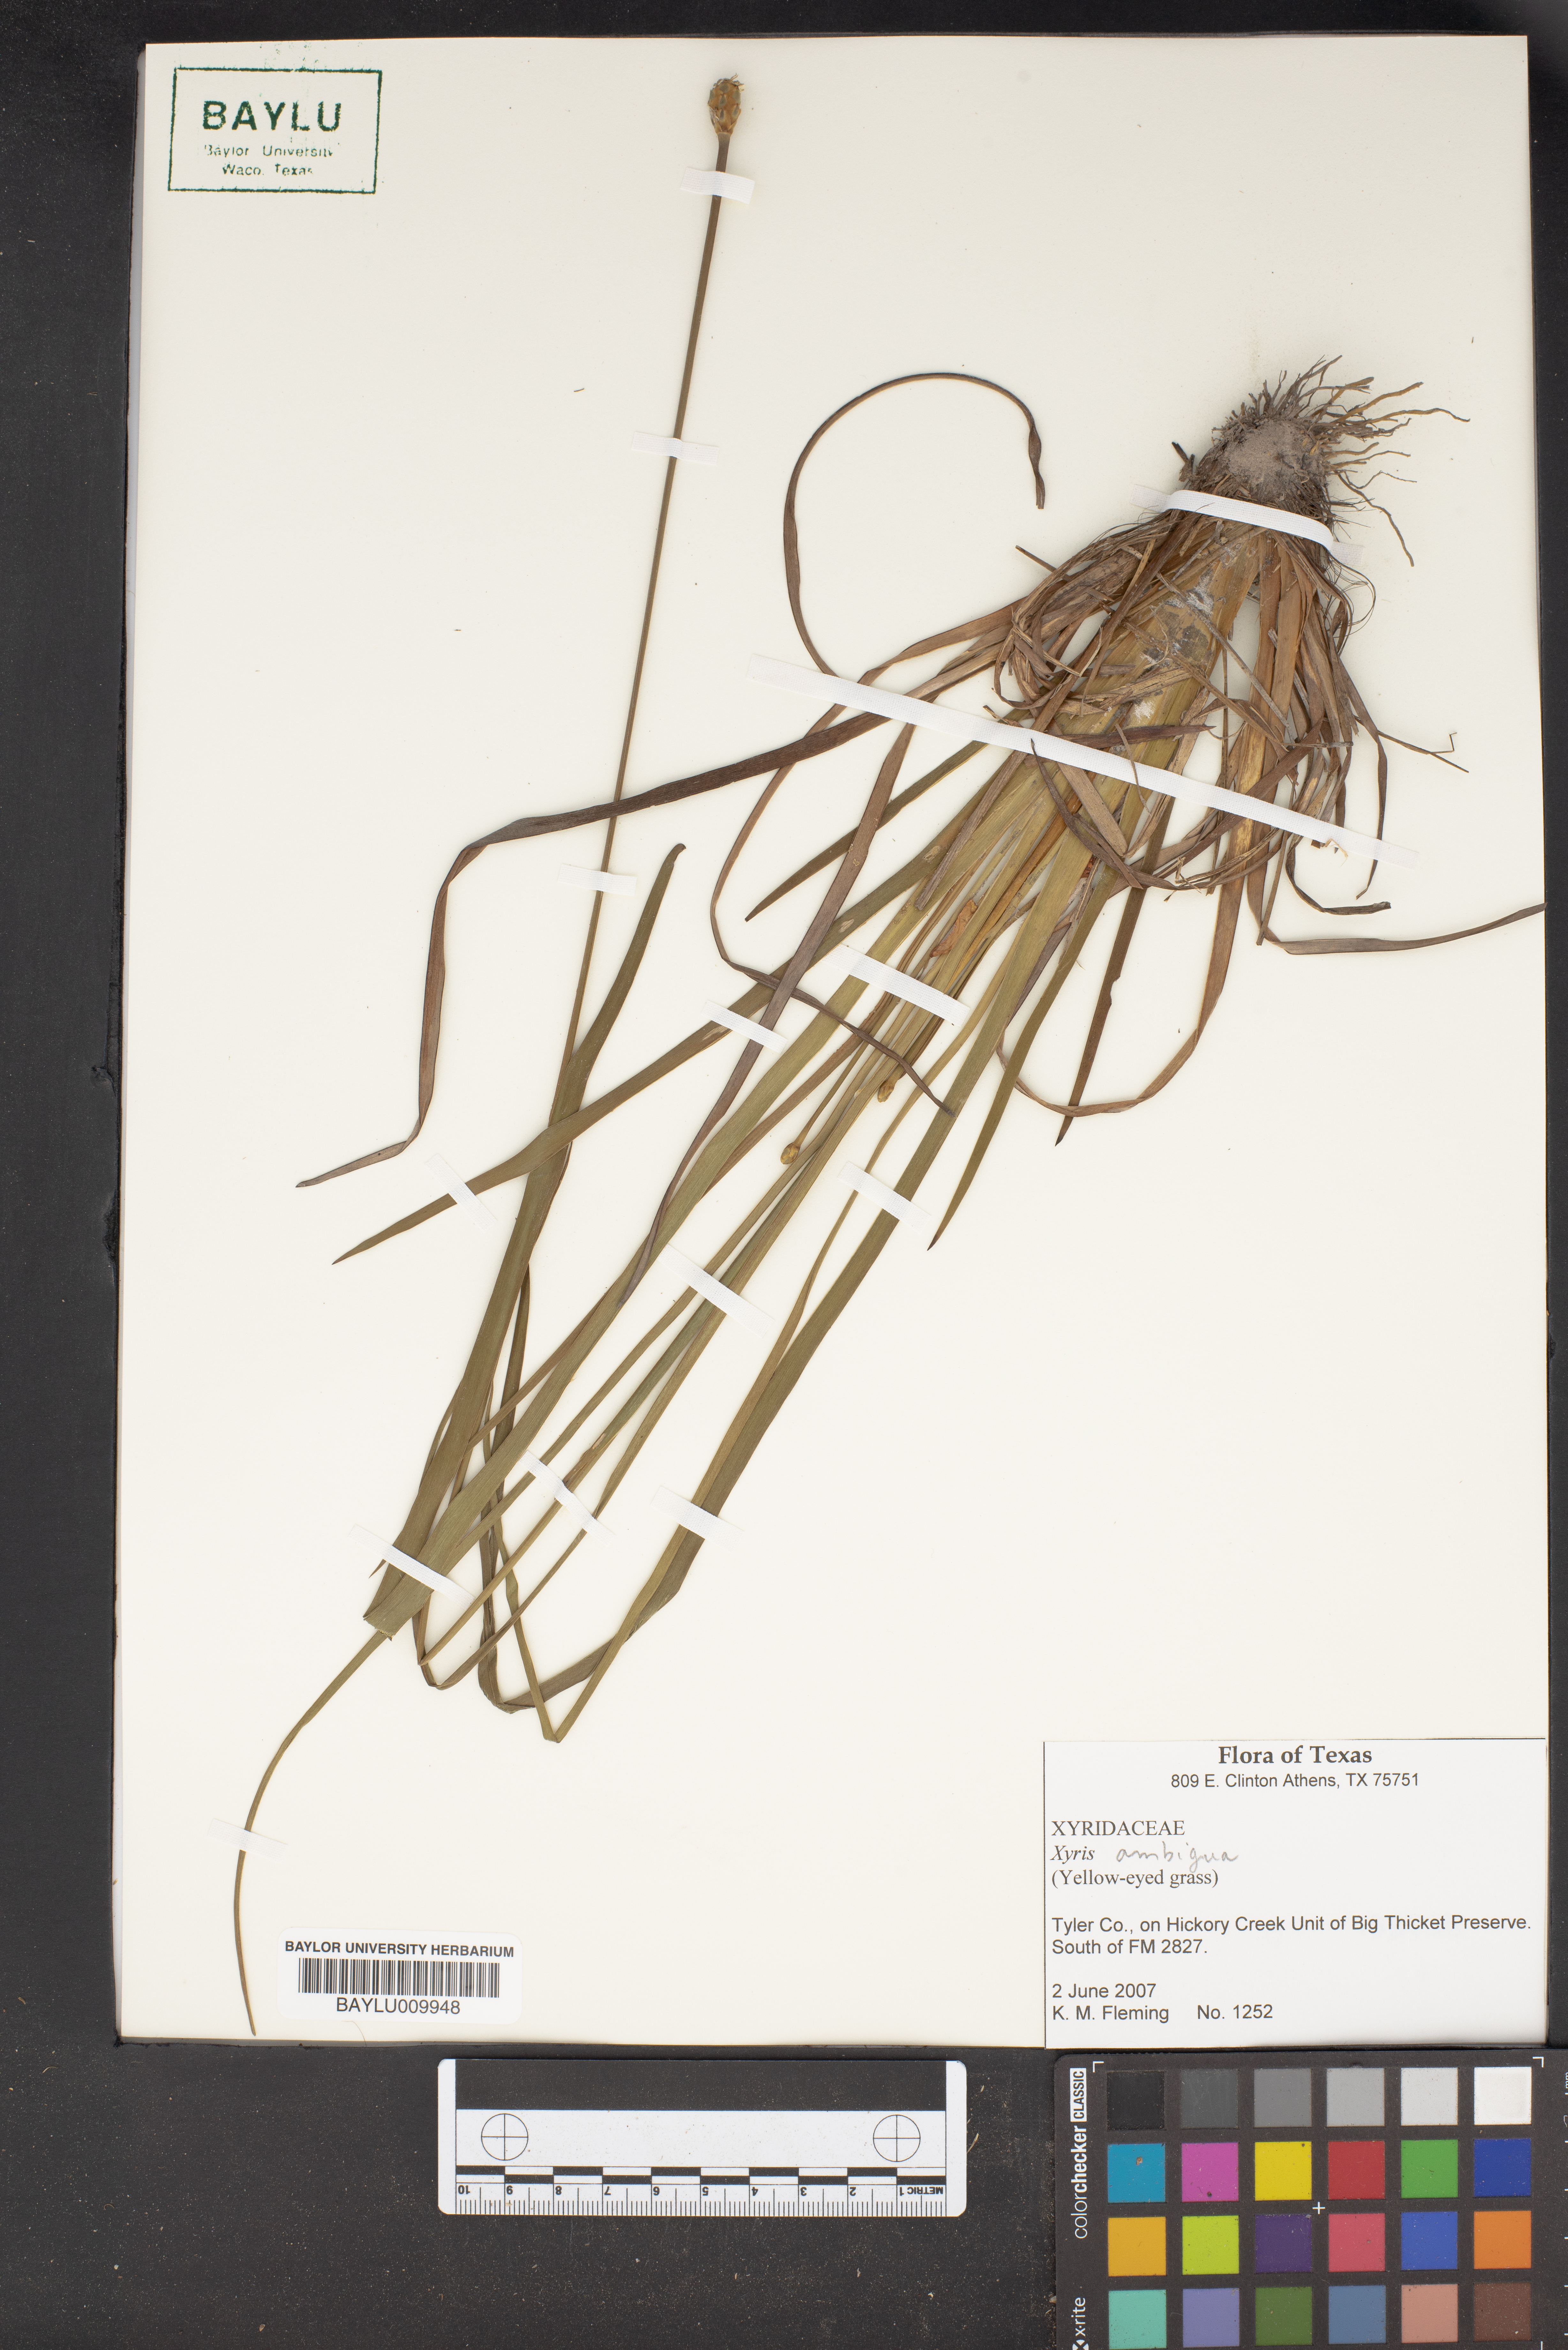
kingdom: Plantae
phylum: Tracheophyta
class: Liliopsida
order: Poales
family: Xyridaceae
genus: Xyris
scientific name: Xyris ambigua
